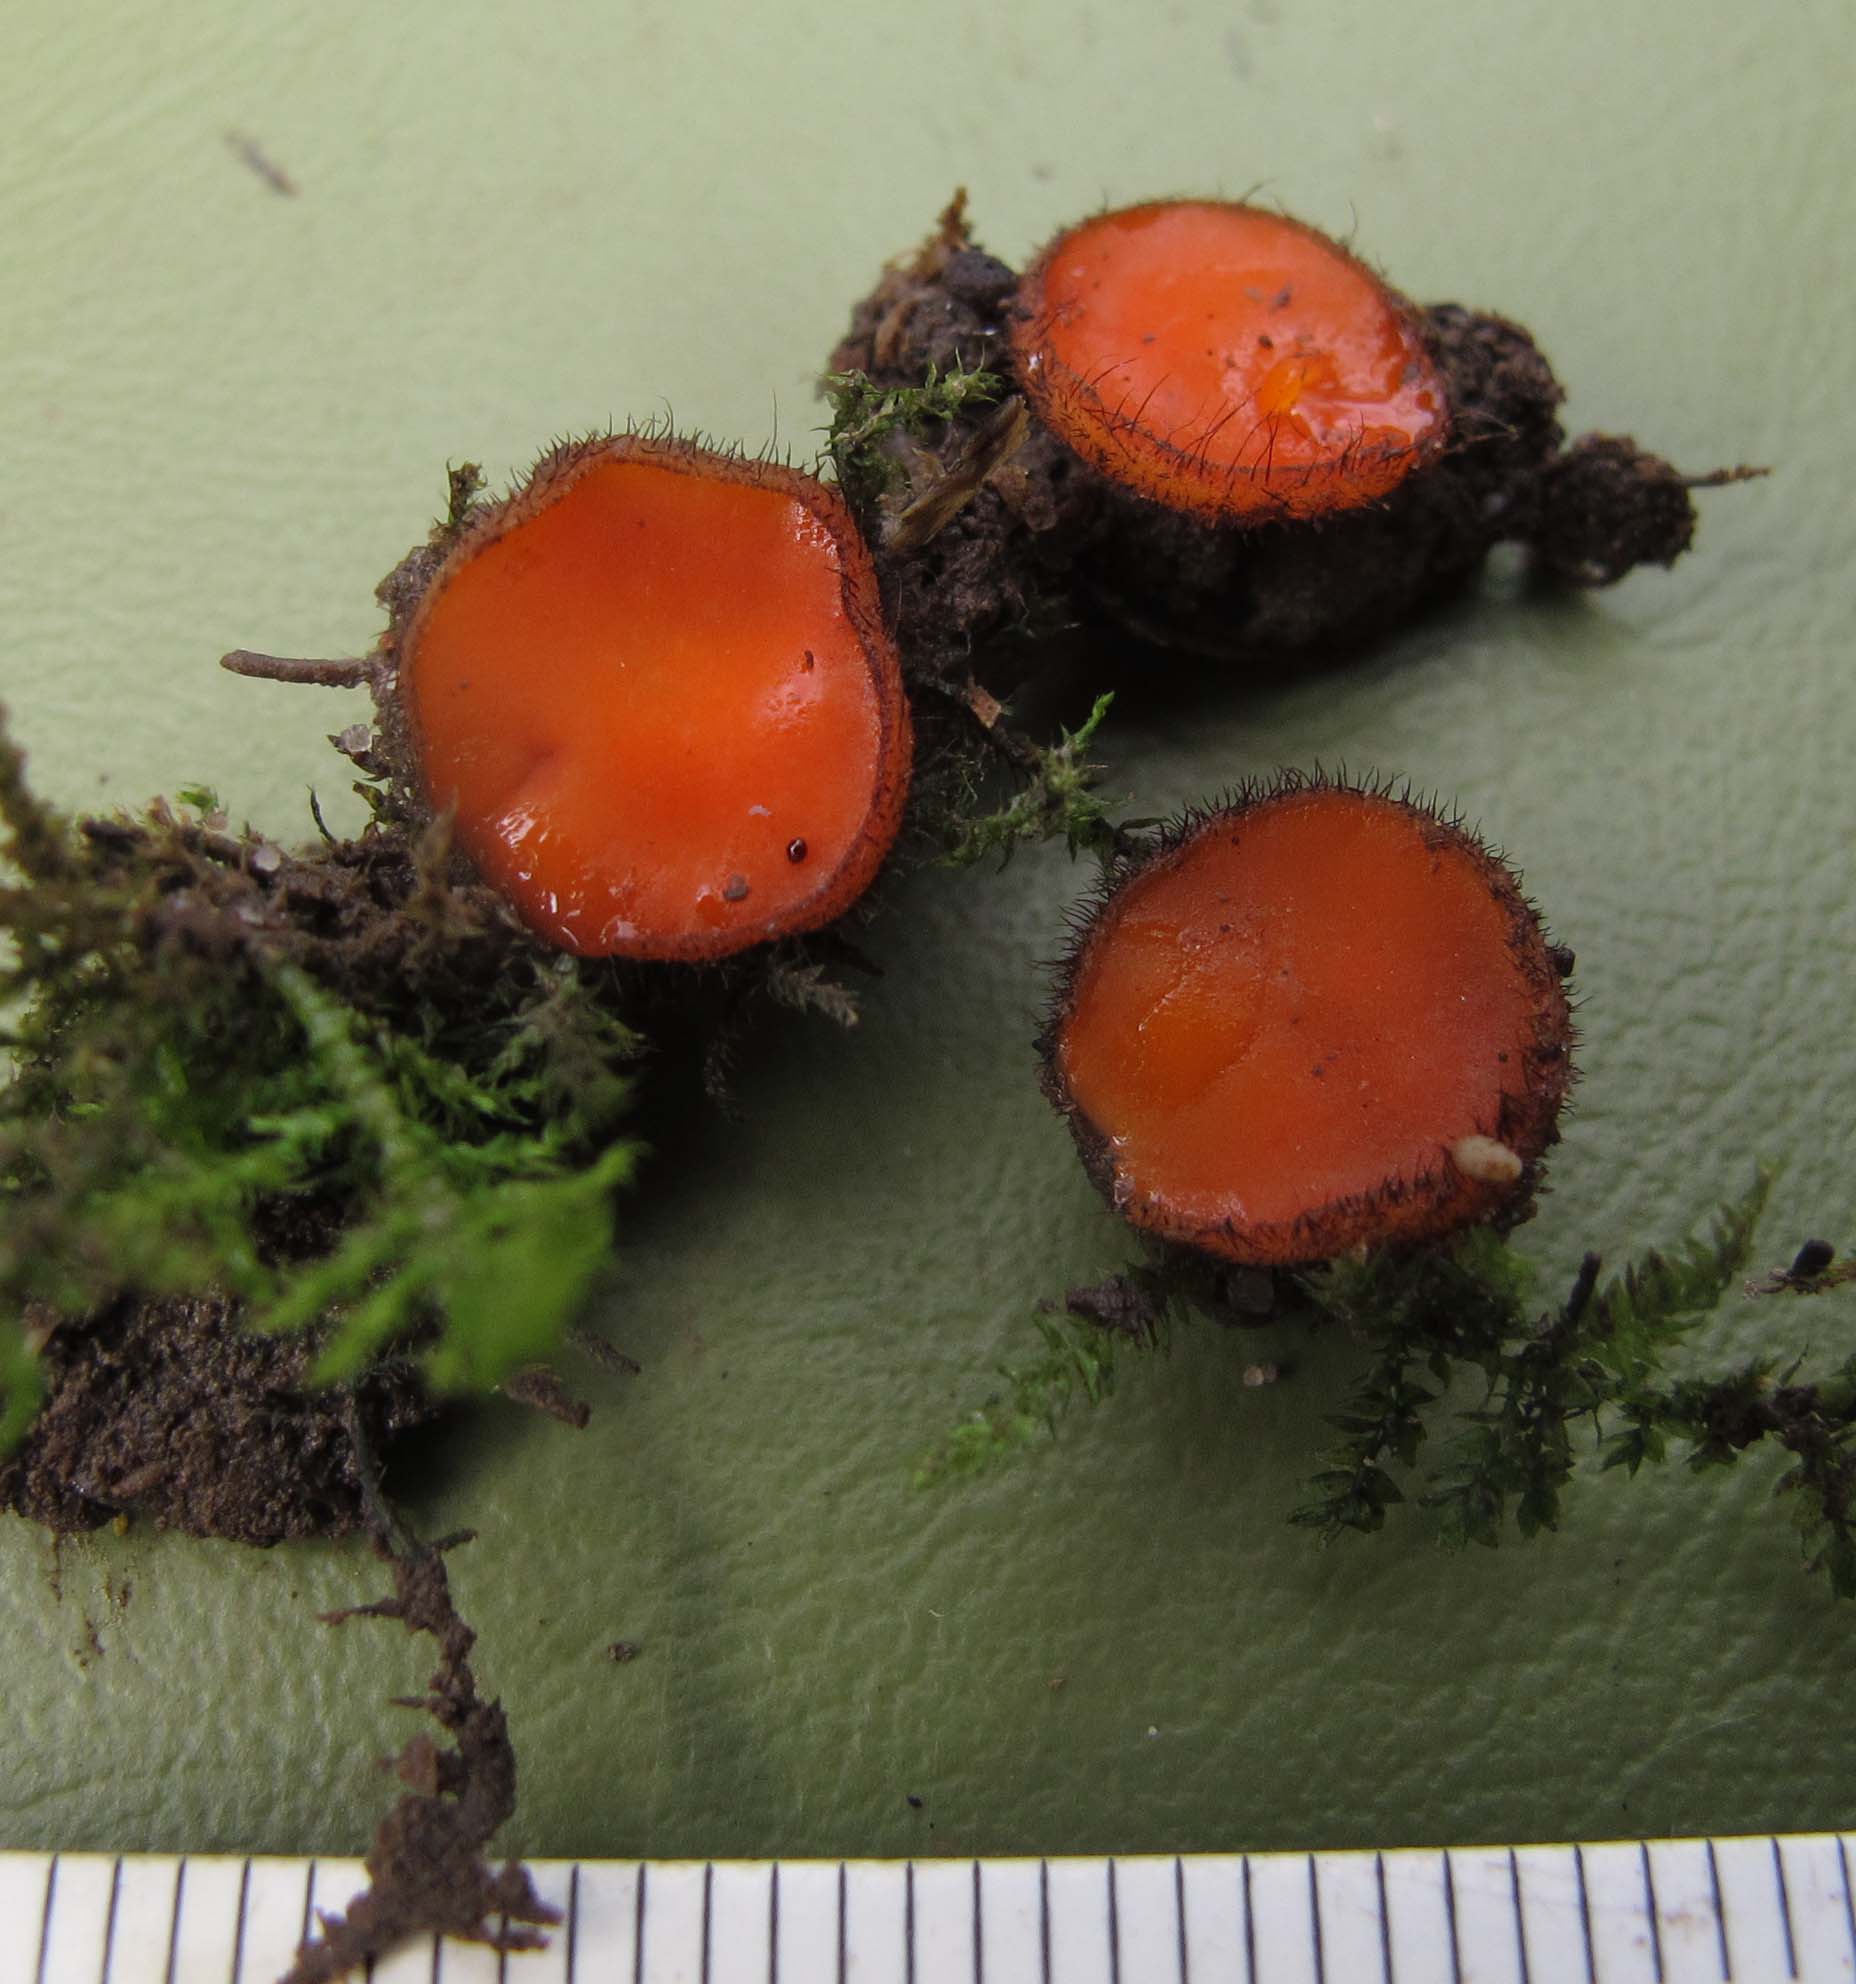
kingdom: Fungi
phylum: Ascomycota
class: Pezizomycetes
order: Pezizales
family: Pyronemataceae
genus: Scutellinia
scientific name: Scutellinia trechispora
